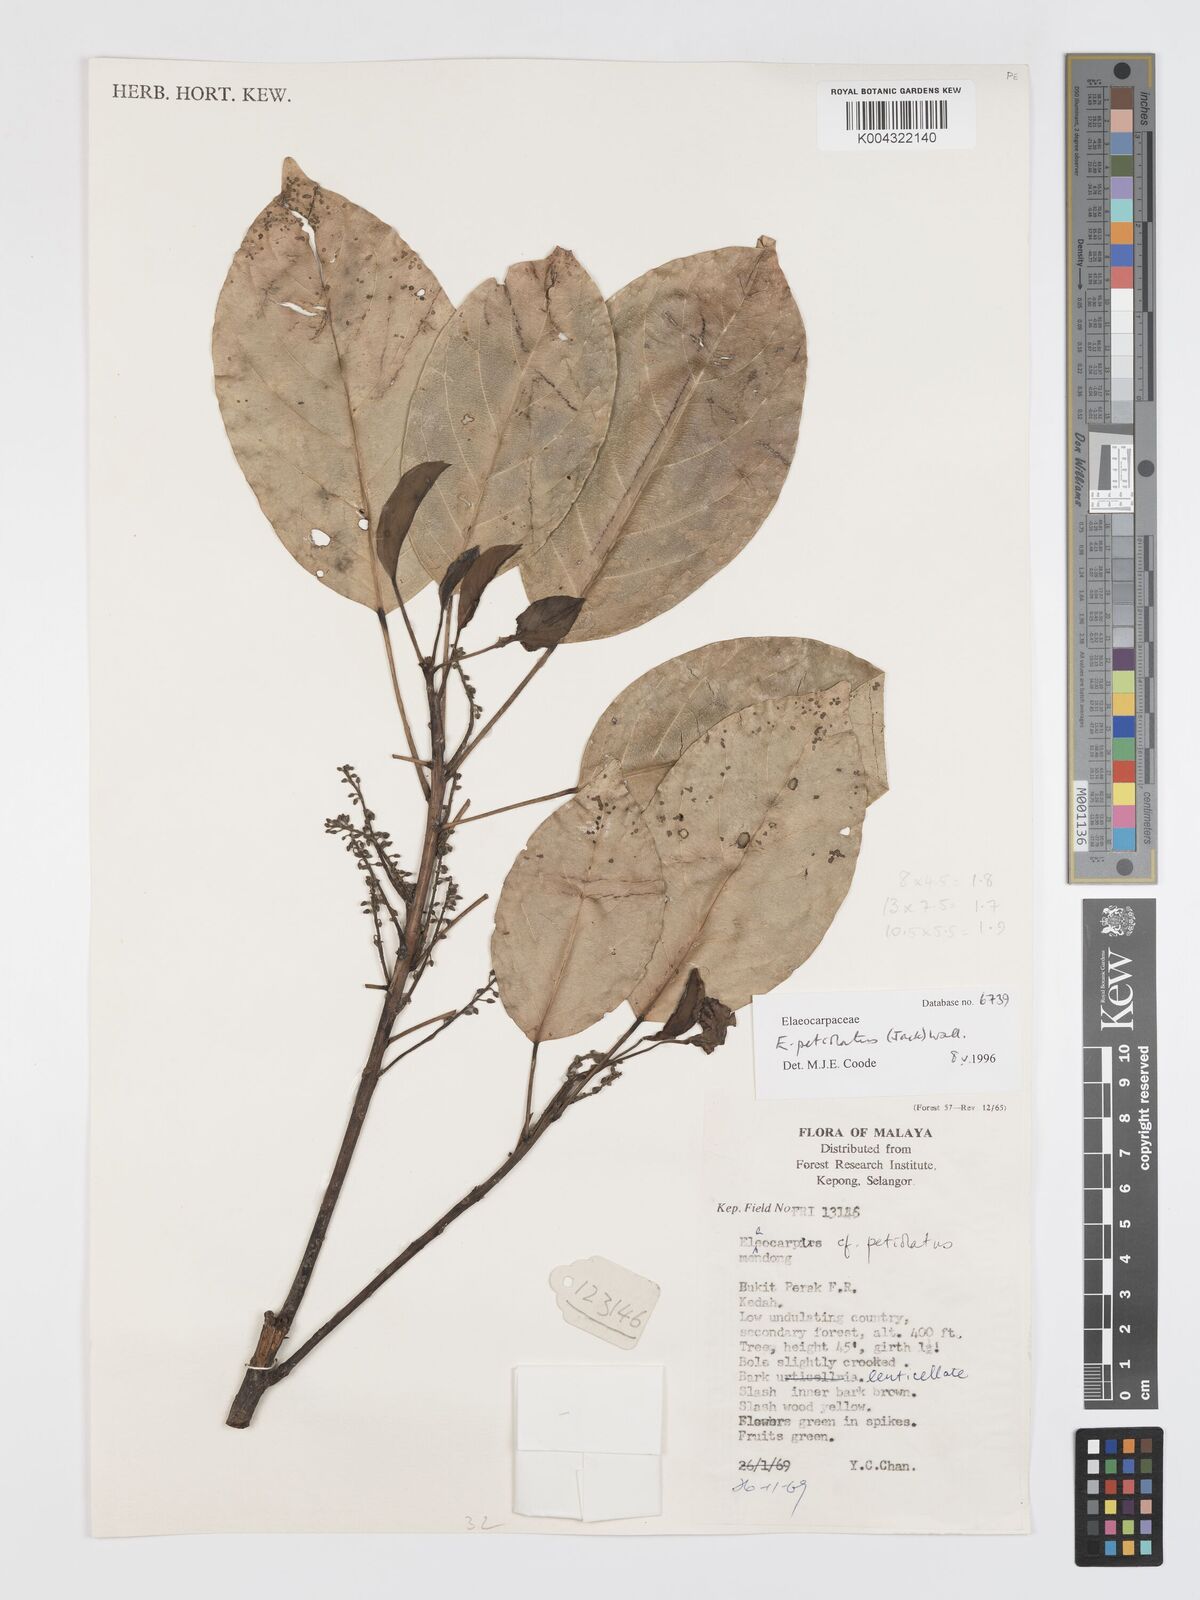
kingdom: Plantae
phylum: Tracheophyta
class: Magnoliopsida
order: Oxalidales
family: Elaeocarpaceae
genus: Elaeocarpus
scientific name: Elaeocarpus petiolatus
